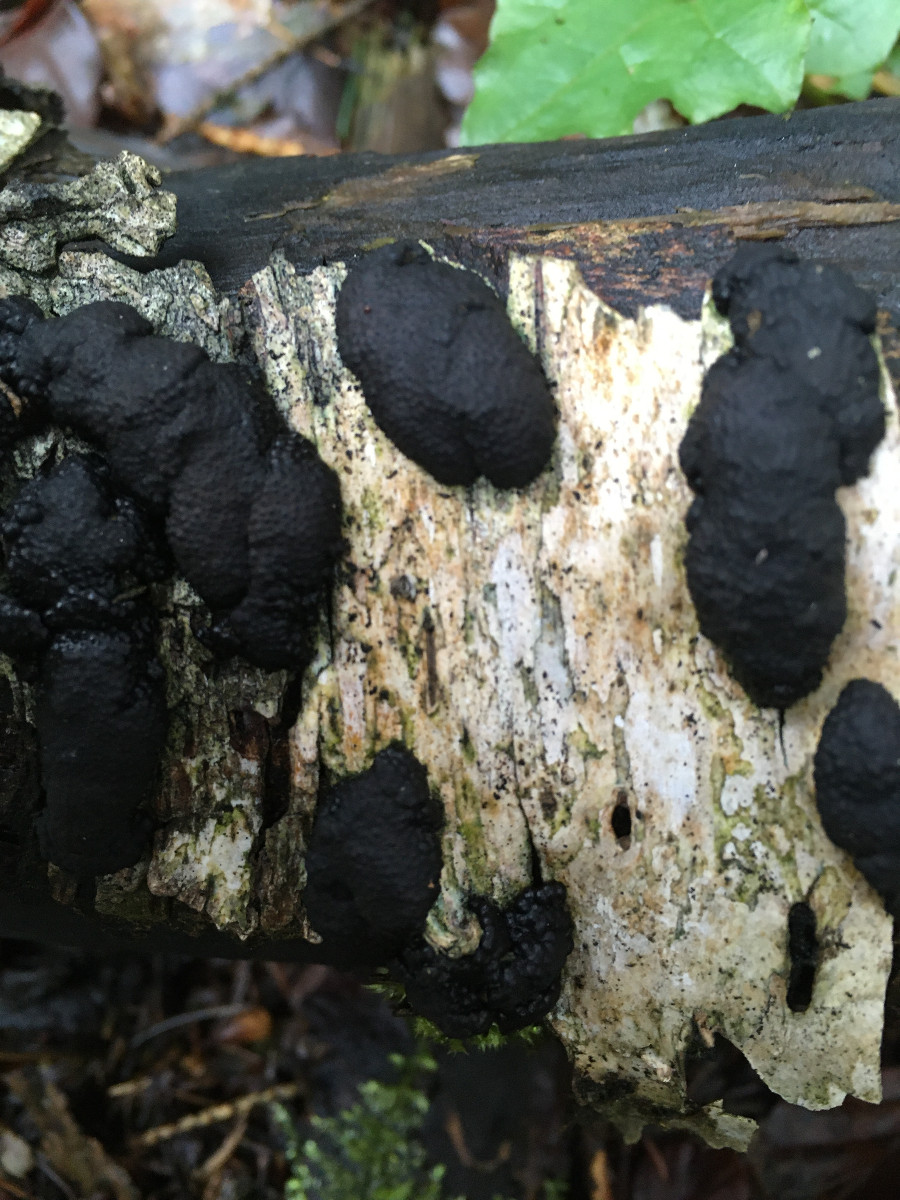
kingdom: Fungi
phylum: Ascomycota
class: Sordariomycetes
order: Xylariales
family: Hypoxylaceae
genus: Jackrogersella
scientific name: Jackrogersella multiformis
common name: foranderlig kulbær
